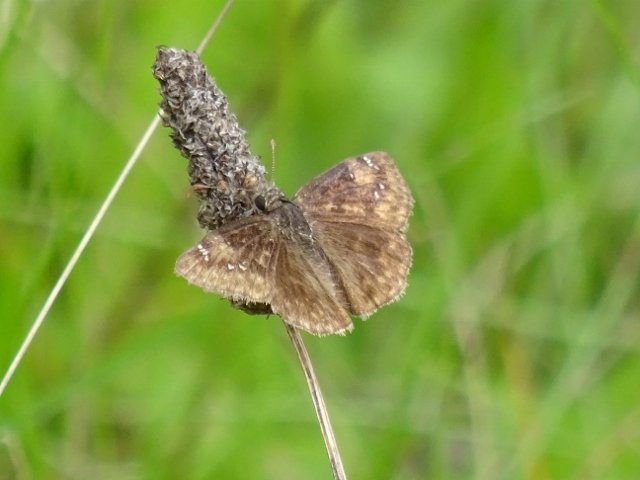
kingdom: Animalia
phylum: Arthropoda
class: Insecta
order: Lepidoptera
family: Hesperiidae
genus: Gesta
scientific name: Gesta
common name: Wild Indigo Duskywing
